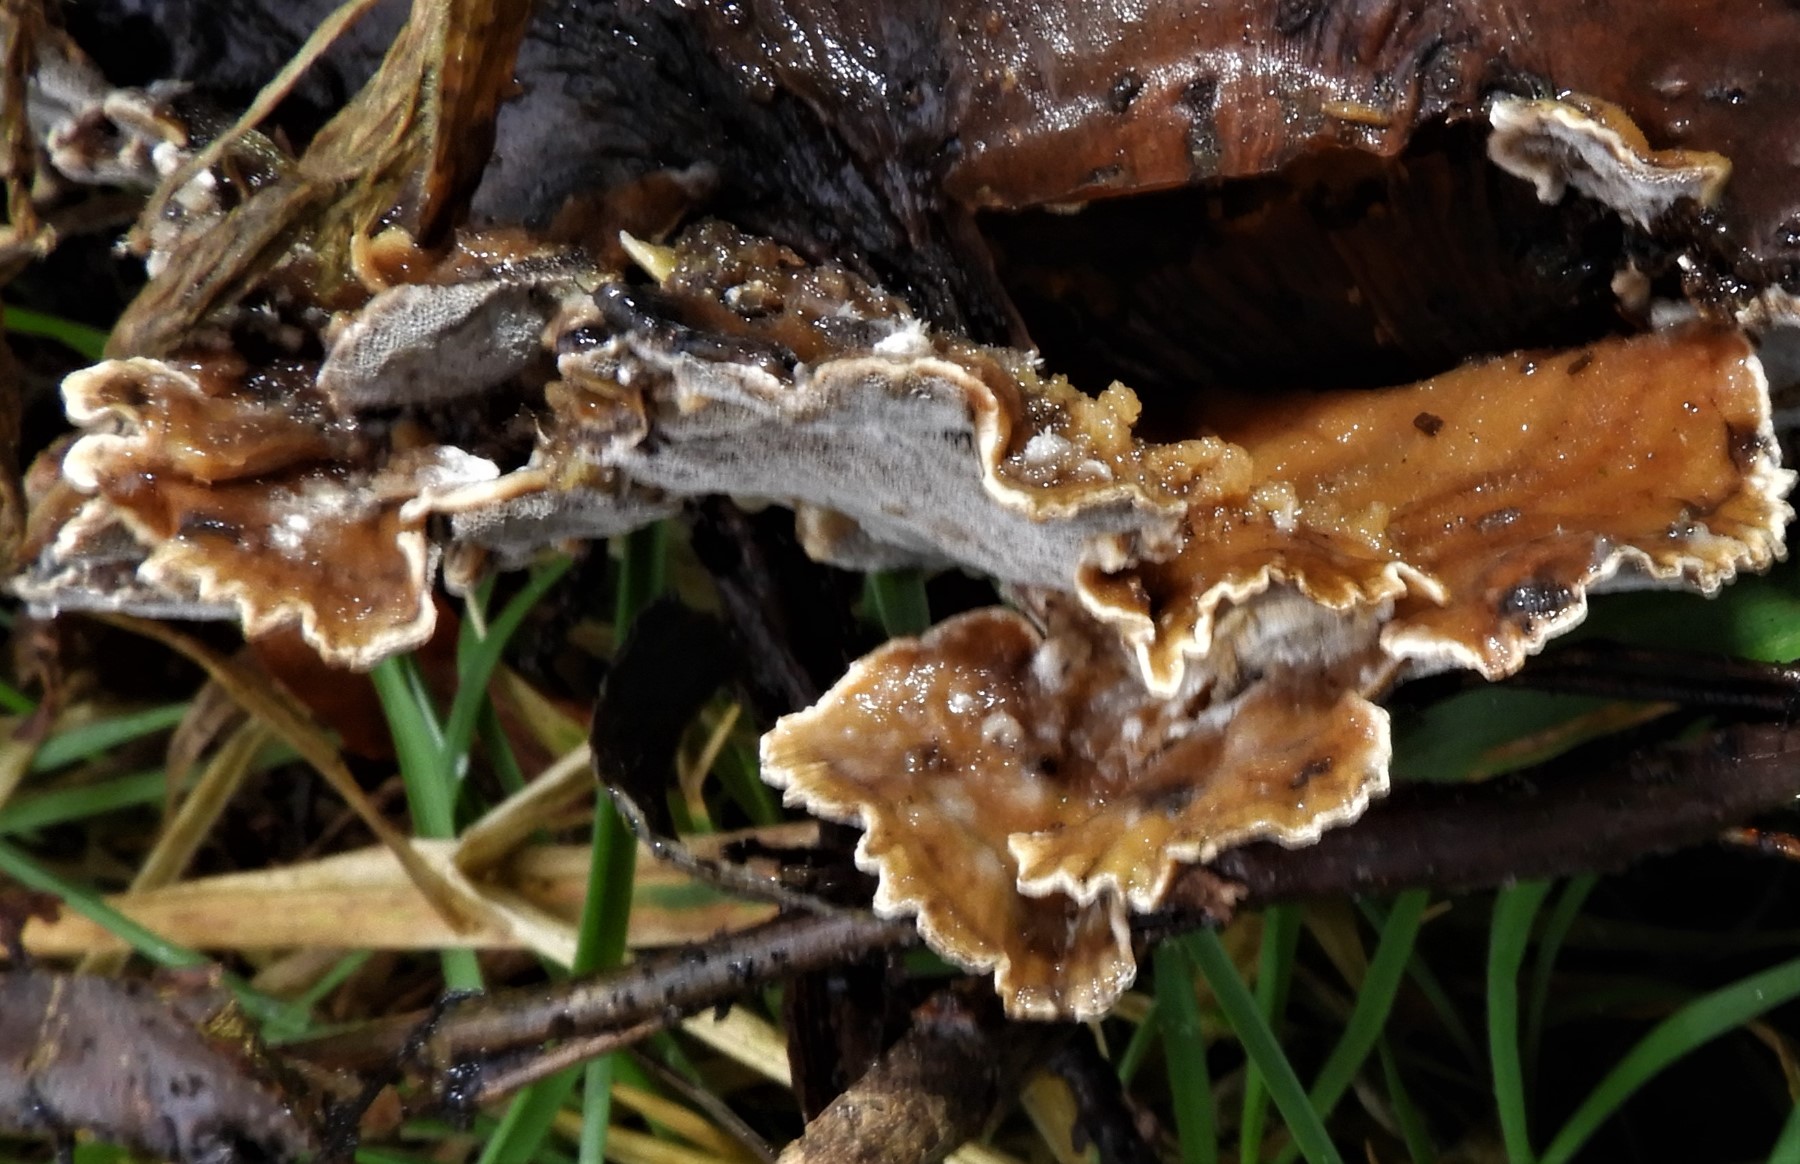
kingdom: Fungi
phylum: Basidiomycota
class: Agaricomycetes
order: Polyporales
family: Phanerochaetaceae
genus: Bjerkandera
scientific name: Bjerkandera adusta
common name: sveden sodporesvamp
